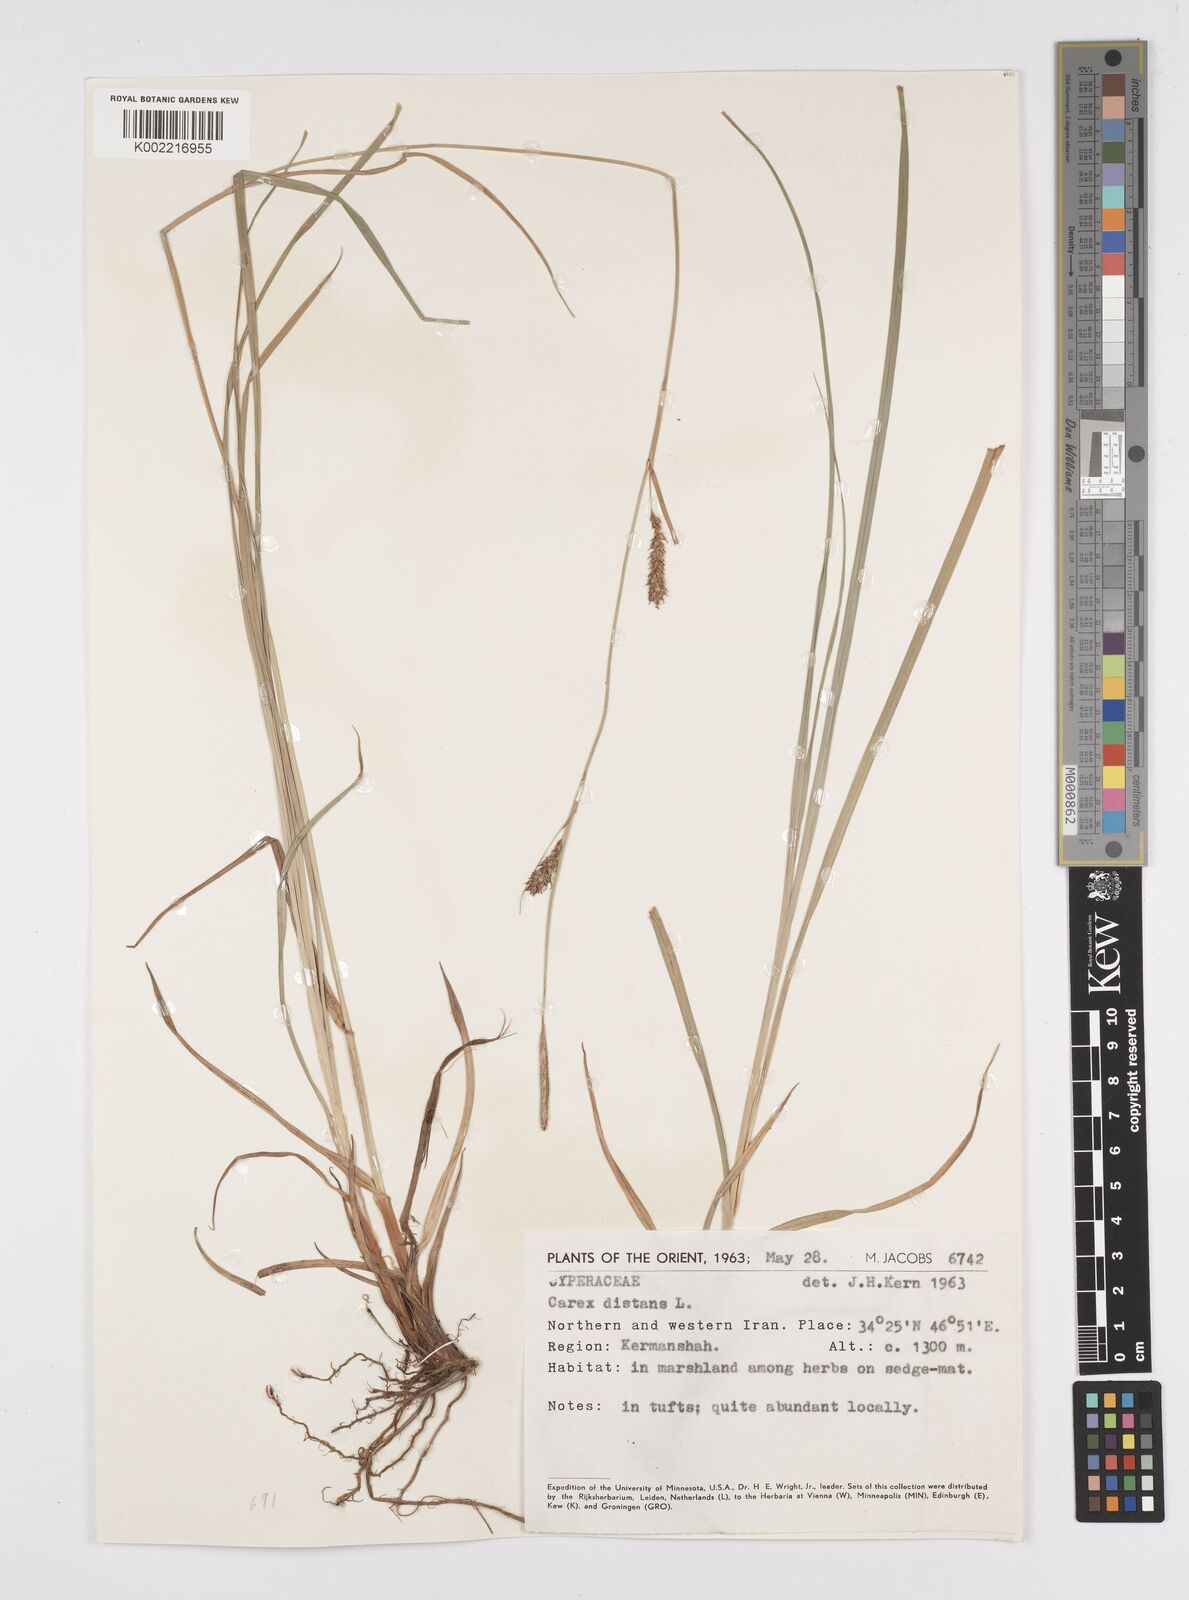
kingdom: Plantae
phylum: Tracheophyta
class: Liliopsida
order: Poales
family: Cyperaceae
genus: Carex
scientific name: Carex distans
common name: Distant sedge
